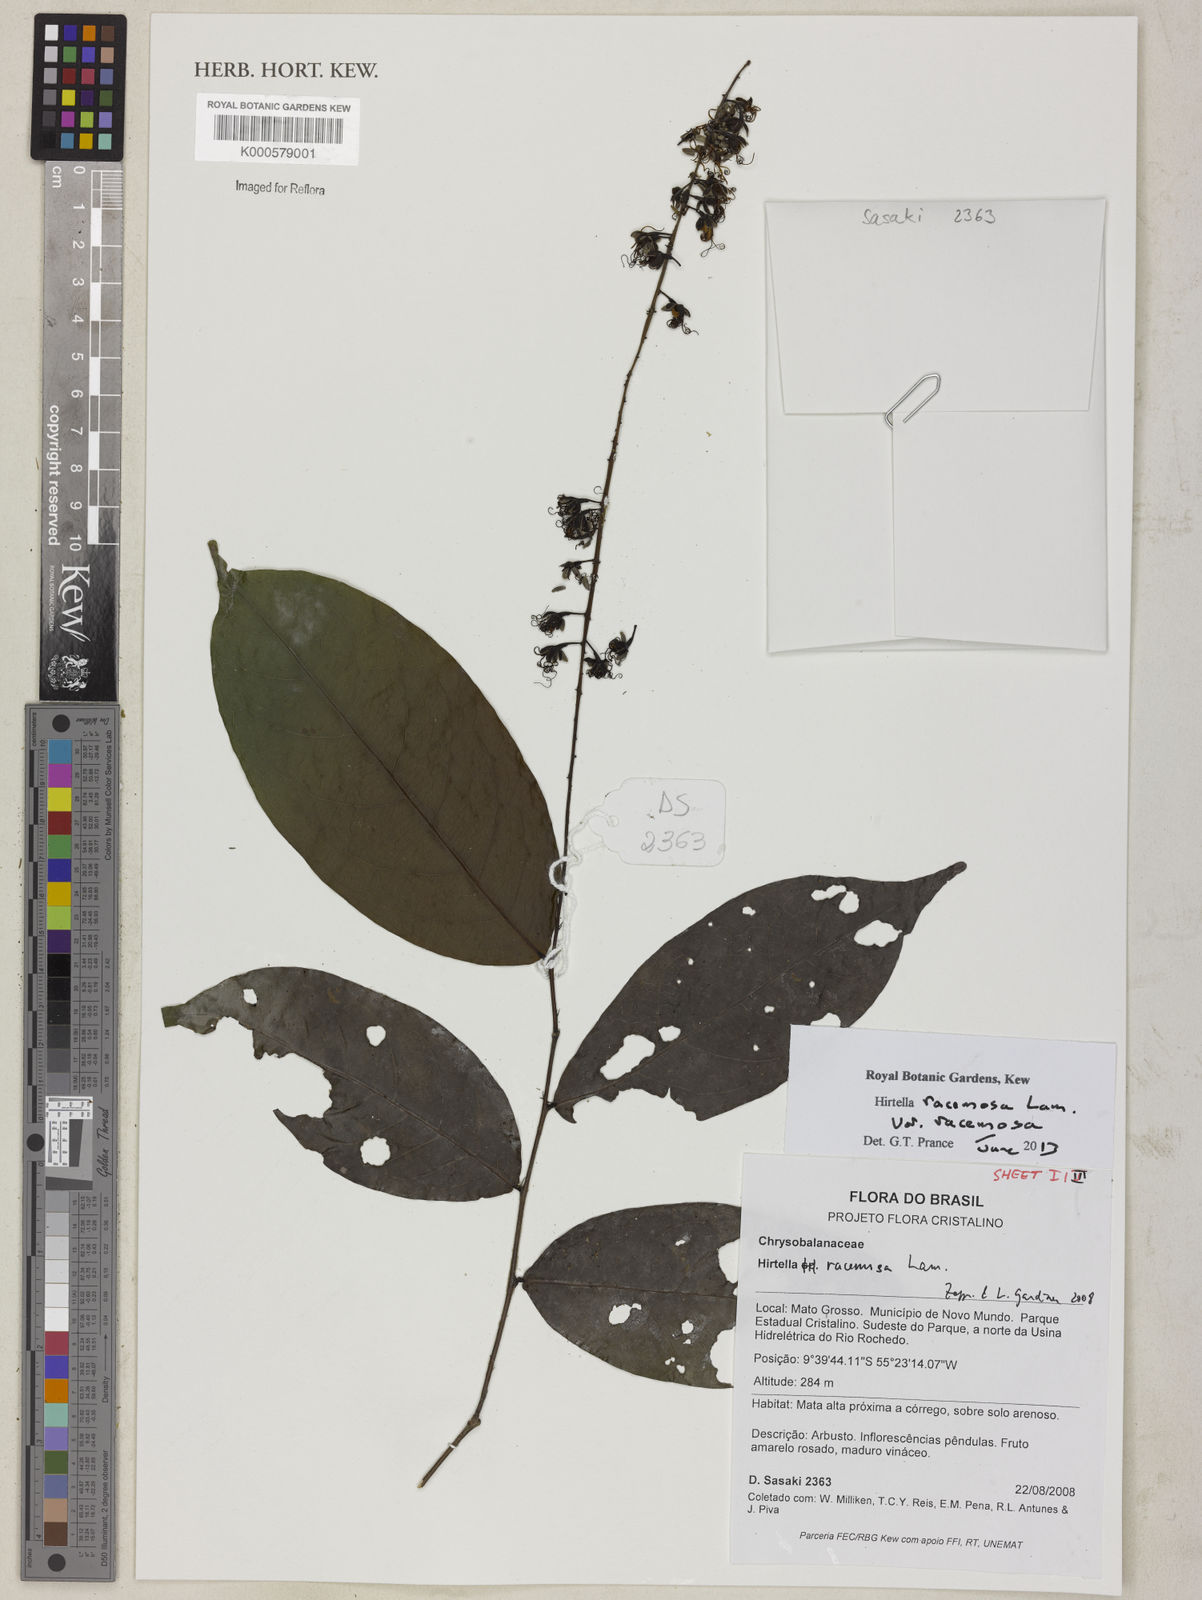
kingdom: Plantae
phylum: Tracheophyta
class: Magnoliopsida
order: Malpighiales
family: Chrysobalanaceae
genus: Hirtella
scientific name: Hirtella racemosa
